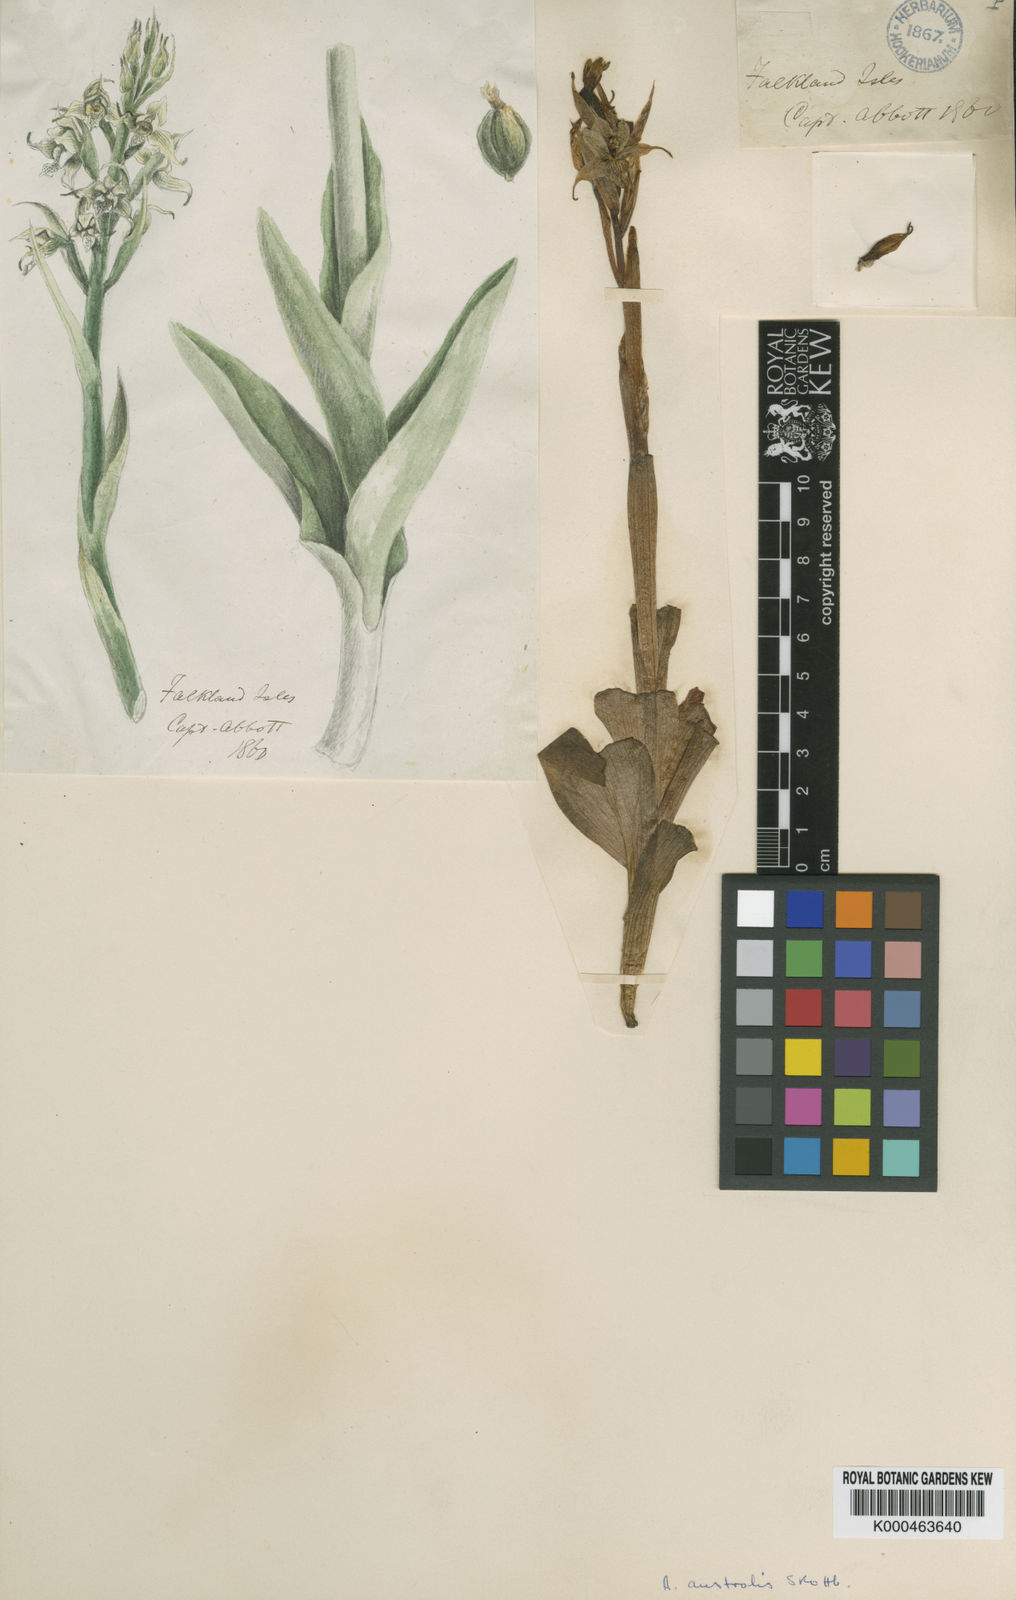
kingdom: Plantae
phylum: Tracheophyta
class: Liliopsida
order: Asparagales
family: Orchidaceae
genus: Gavilea
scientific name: Gavilea australis
